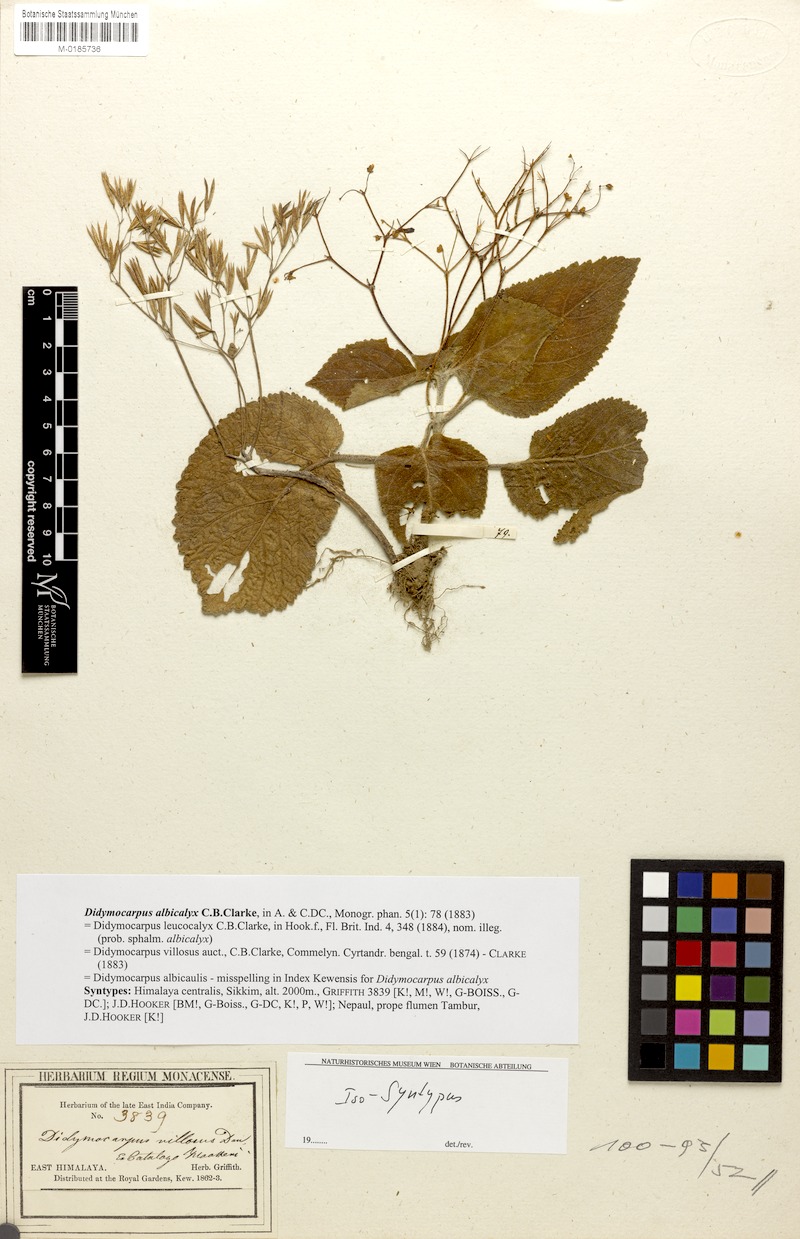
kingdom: Plantae
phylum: Tracheophyta
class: Magnoliopsida
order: Lamiales
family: Gesneriaceae
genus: Didymocarpus
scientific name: Didymocarpus albicalyx
